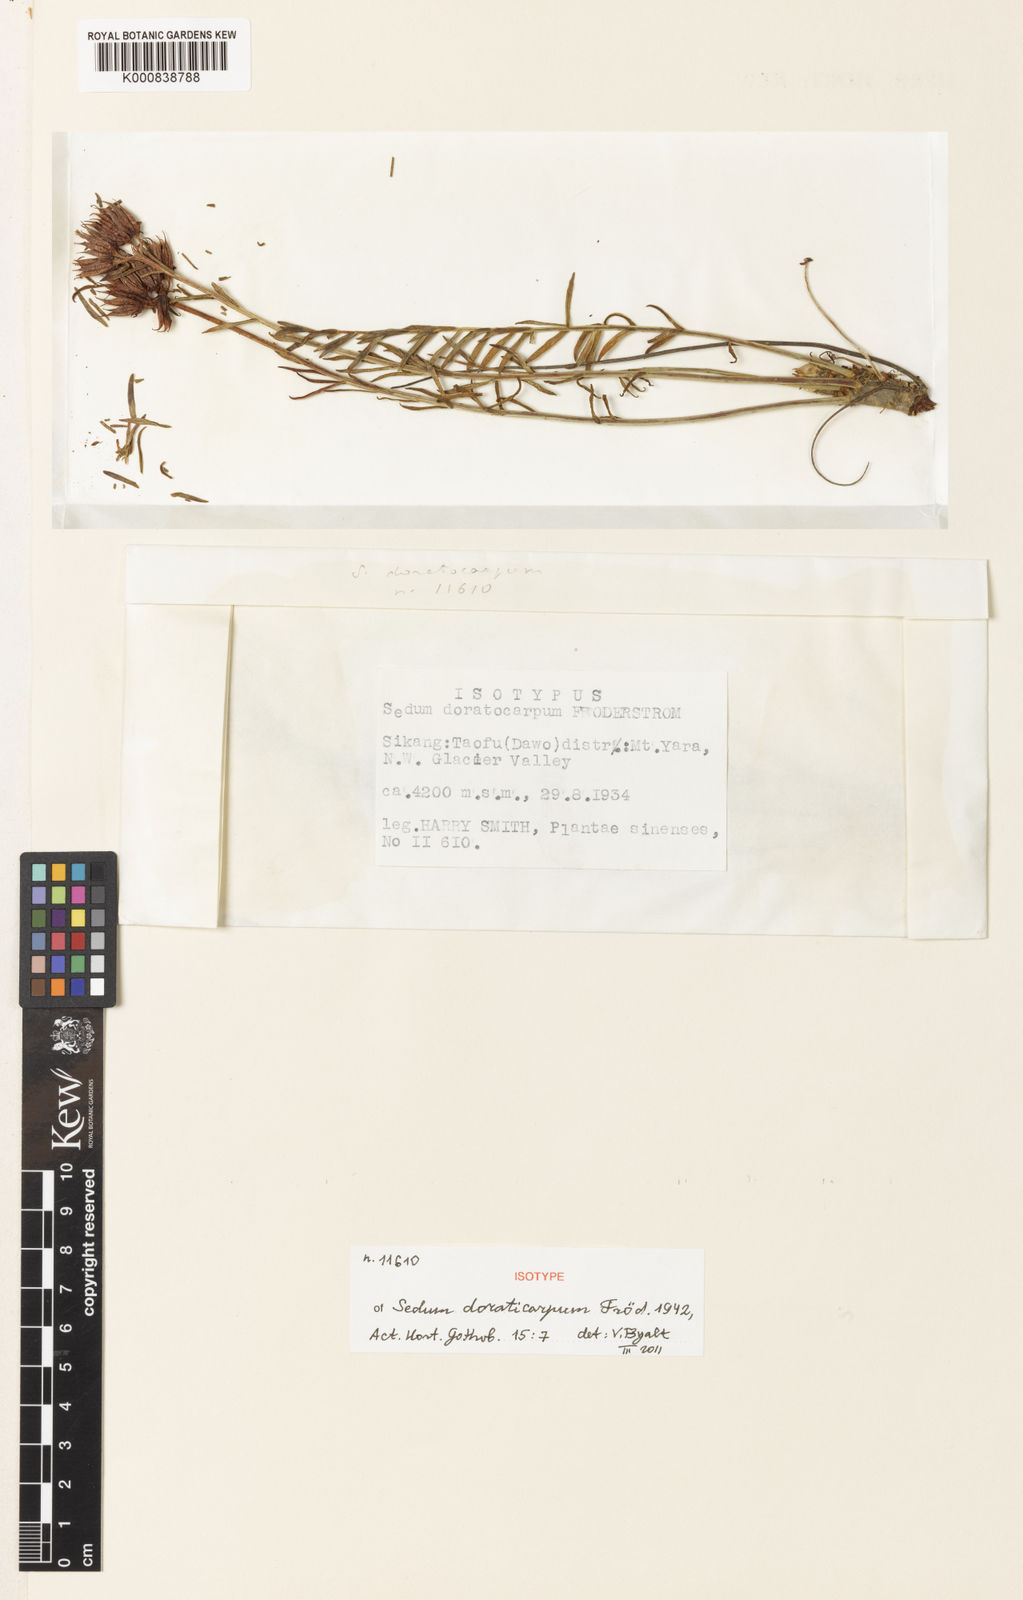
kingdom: Plantae
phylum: Tracheophyta
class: Magnoliopsida
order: Saxifragales
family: Crassulaceae
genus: Sedum
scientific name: Sedum
